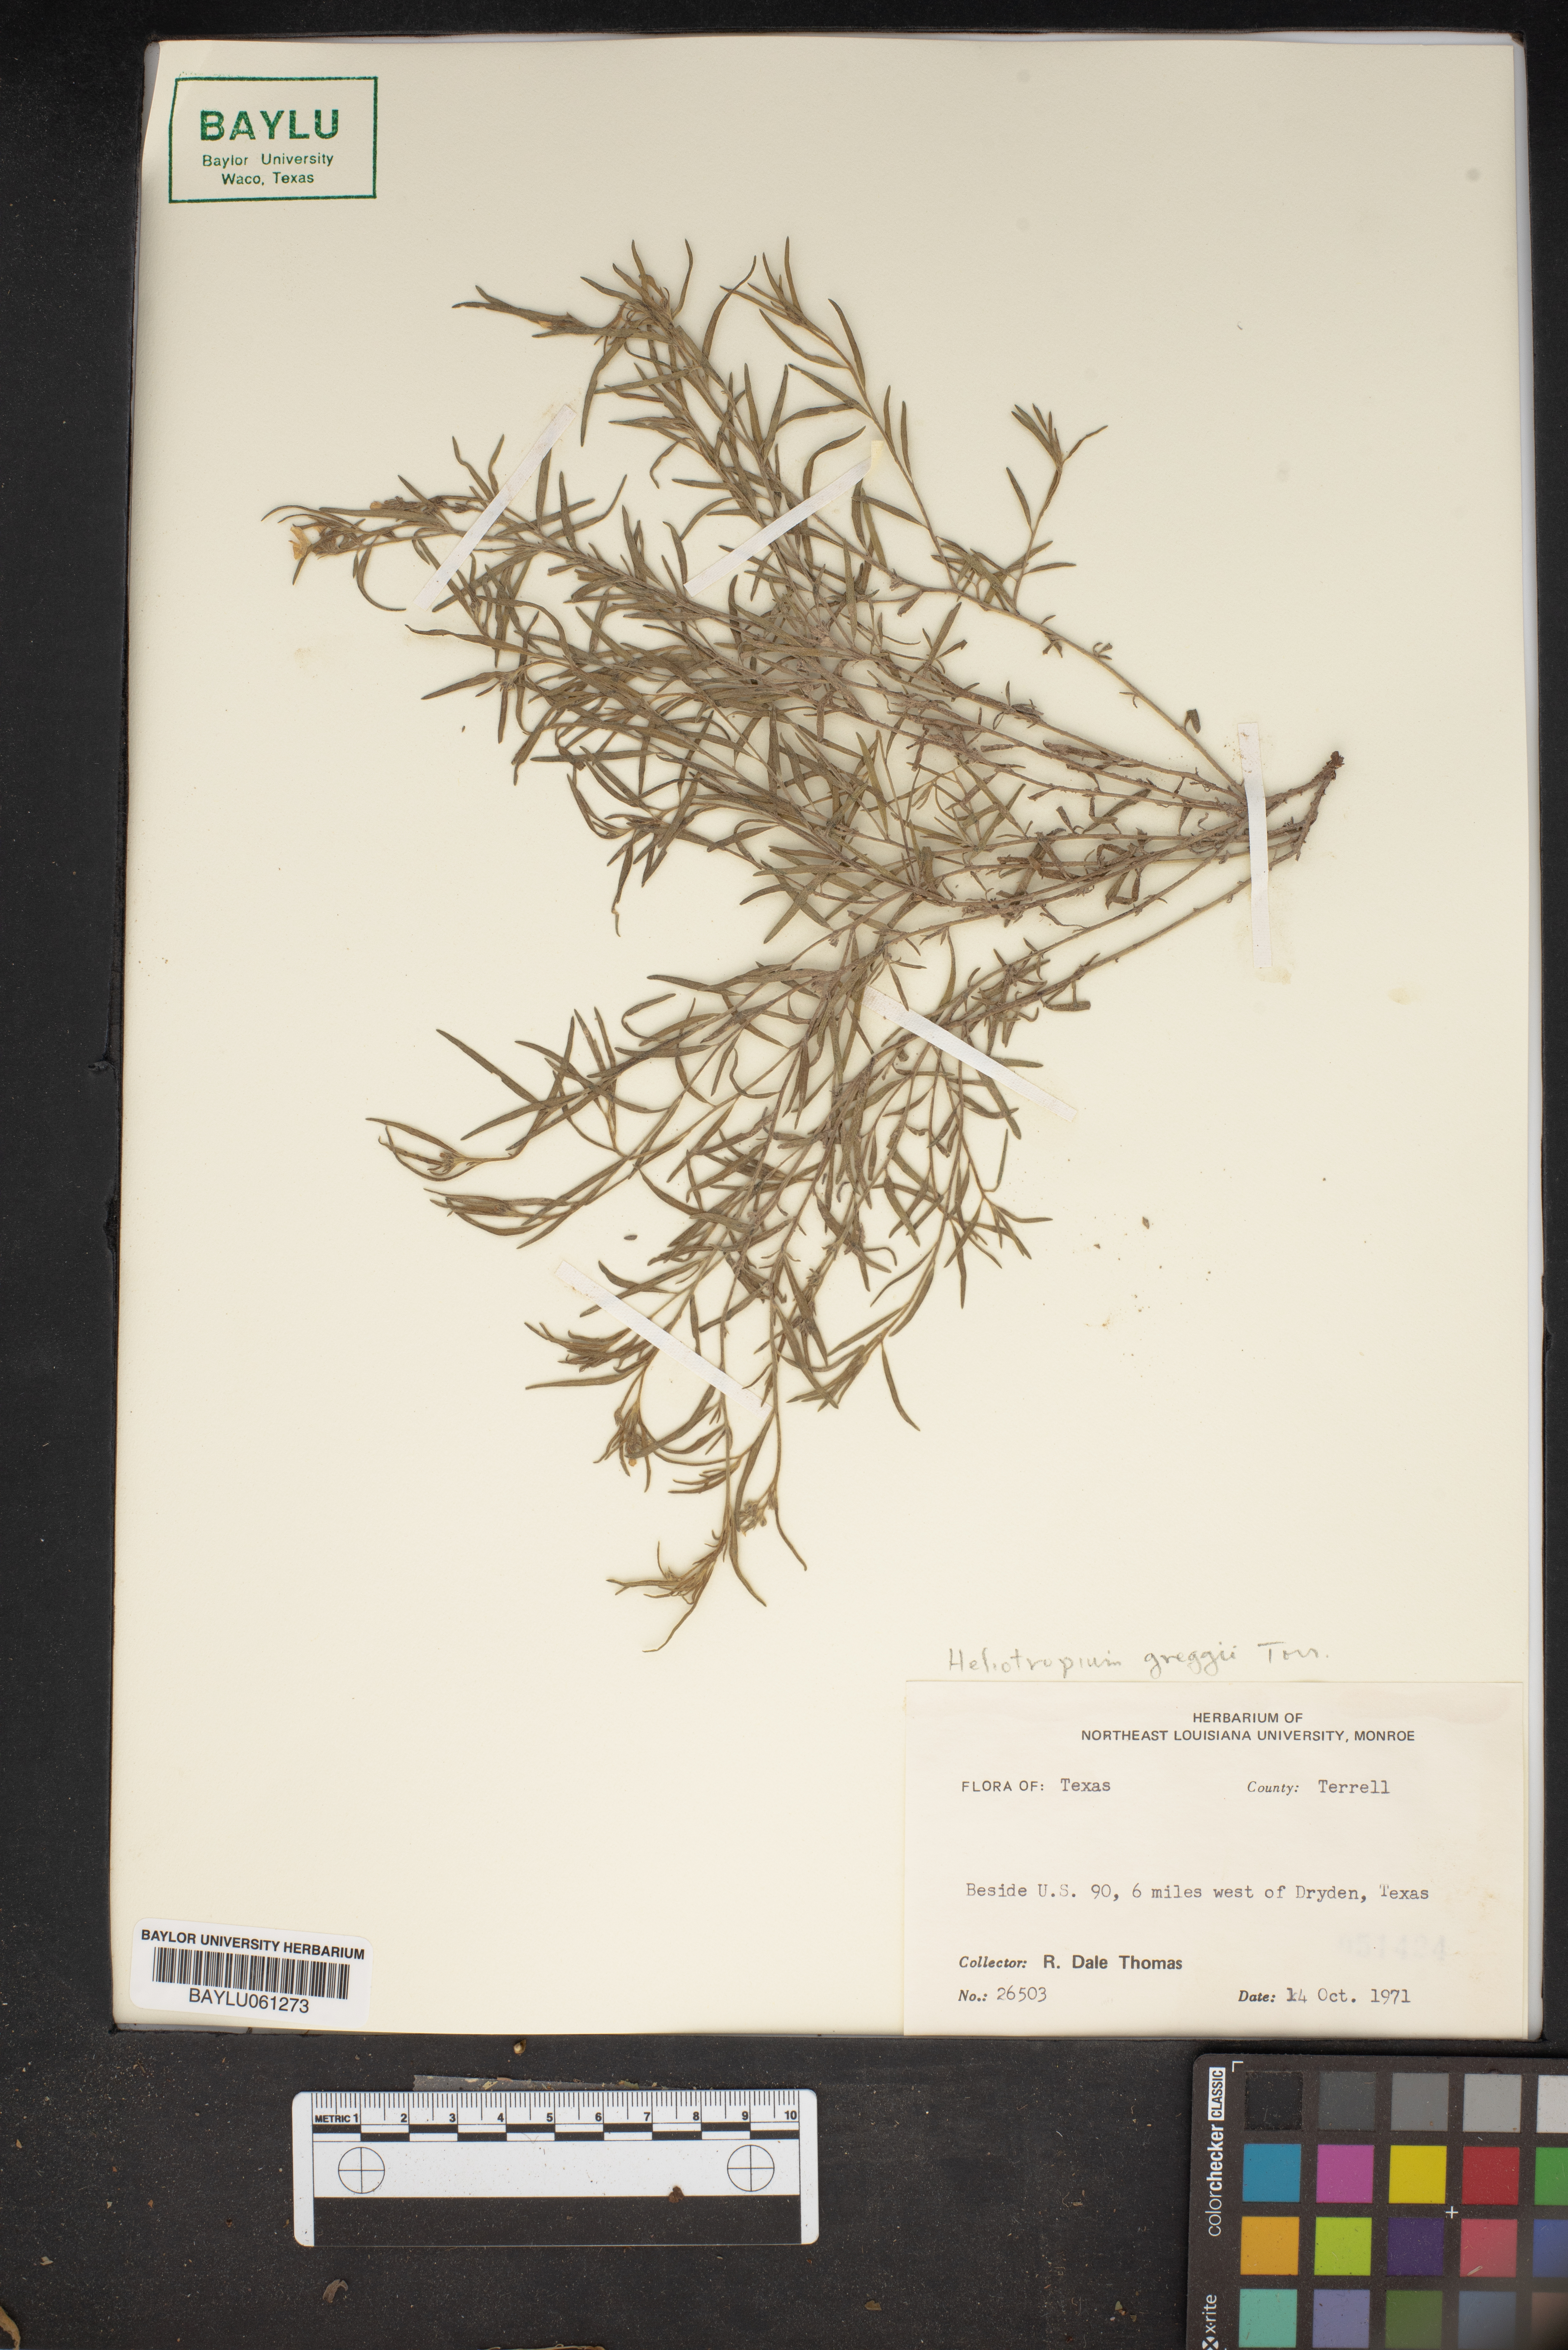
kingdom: Plantae
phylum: Tracheophyta
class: Magnoliopsida
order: Boraginales
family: Heliotropiaceae
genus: Euploca
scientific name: Euploca greggii
